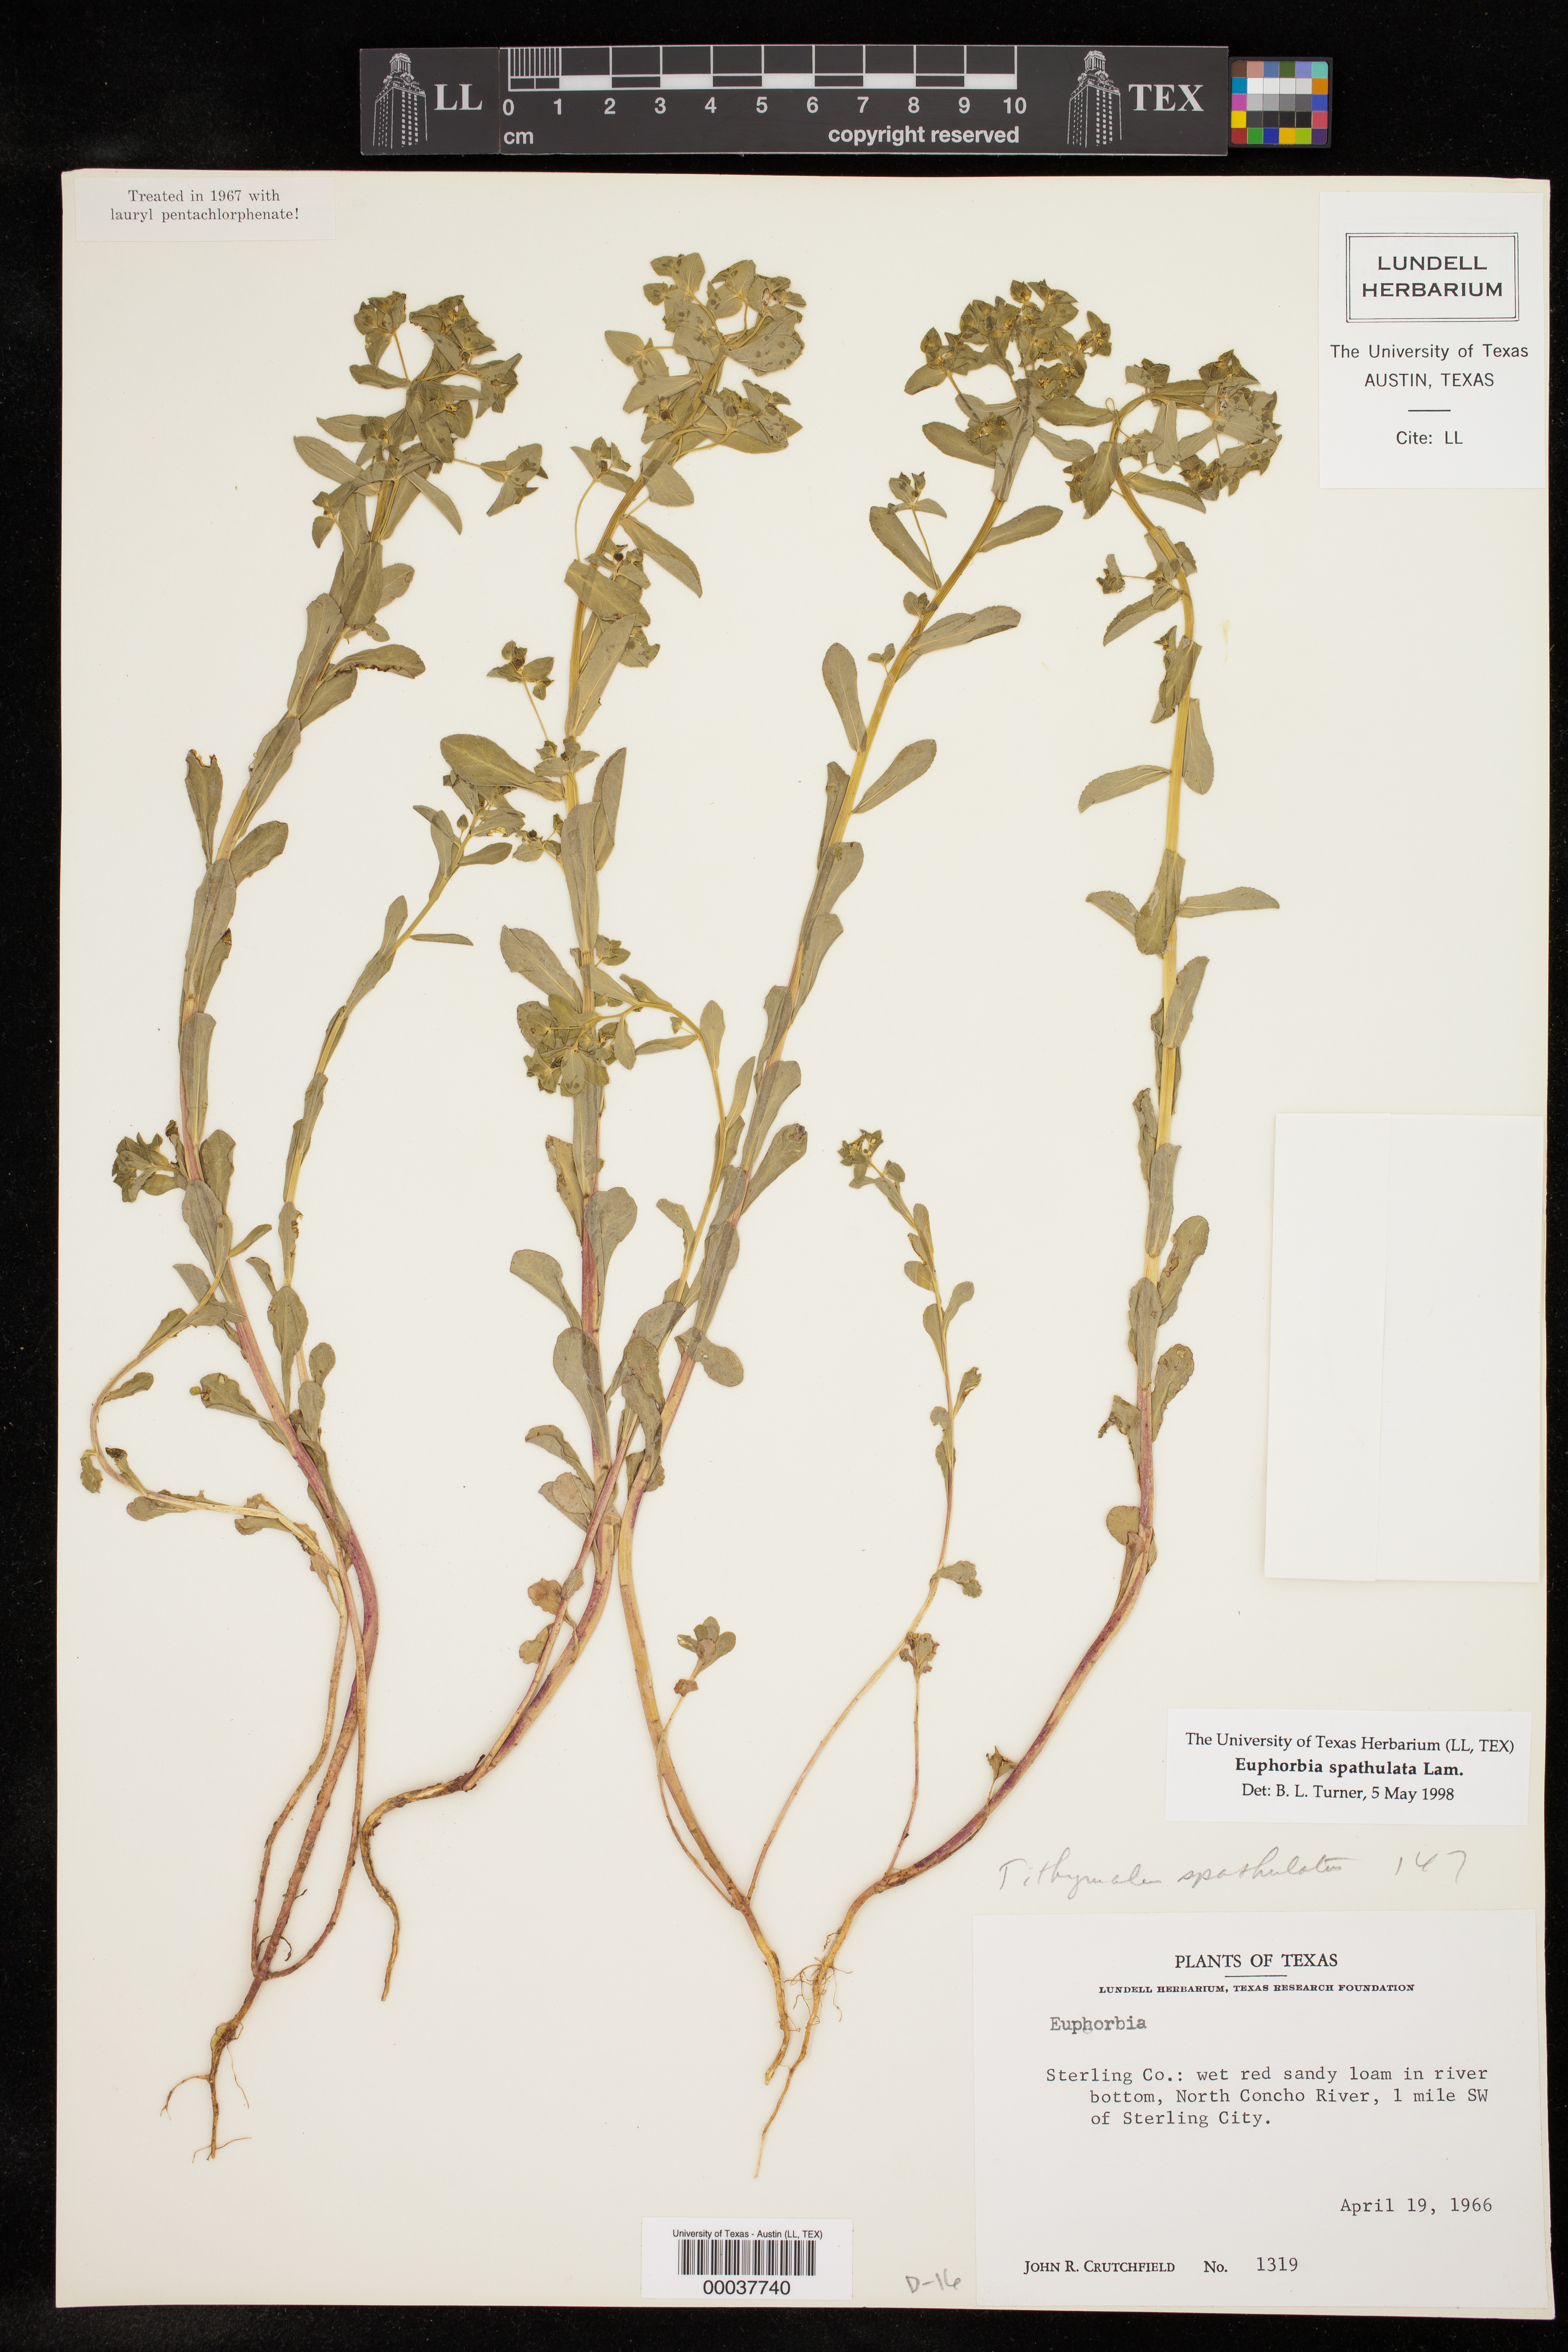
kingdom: Plantae
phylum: Tracheophyta
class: Magnoliopsida
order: Malpighiales
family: Euphorbiaceae
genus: Euphorbia
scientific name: Euphorbia spathulata
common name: Blunt spurge
